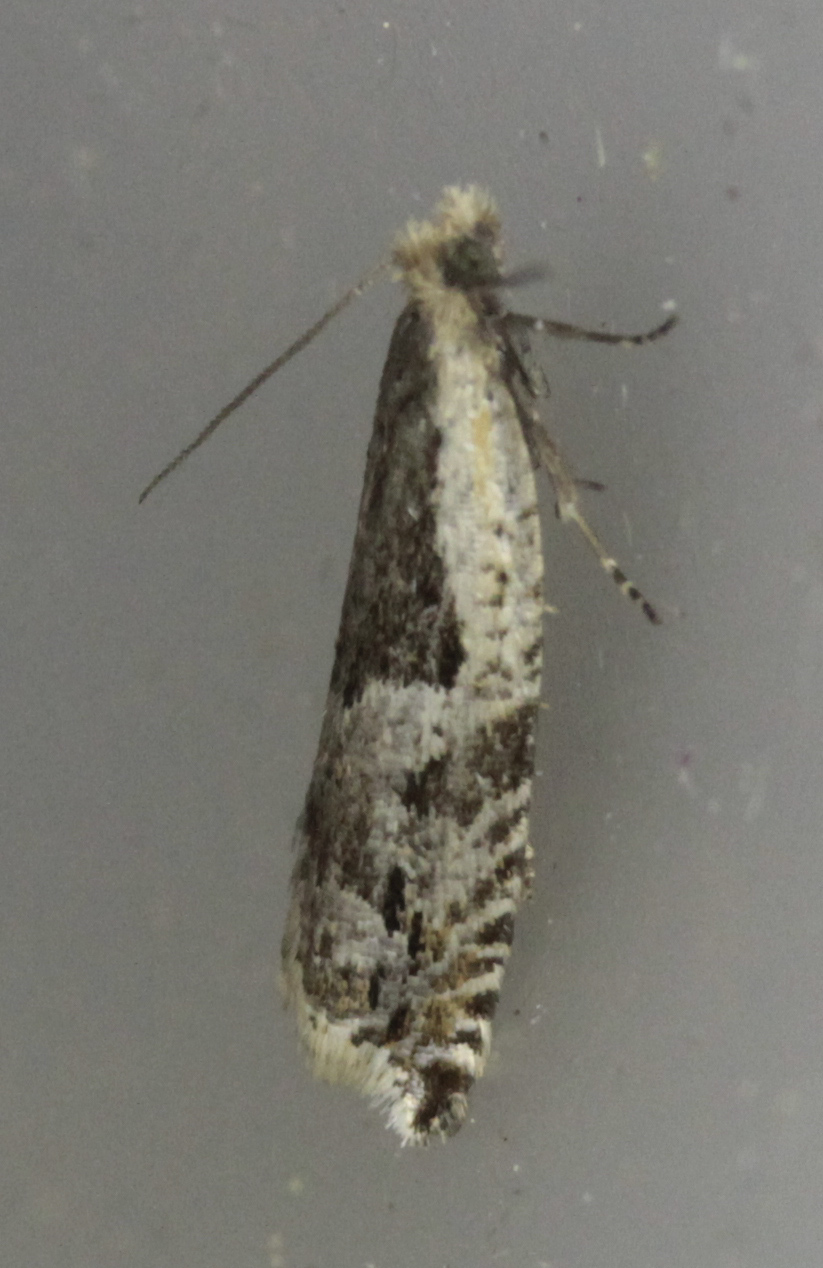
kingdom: Animalia
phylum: Arthropoda
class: Insecta
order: Lepidoptera
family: Tortricidae
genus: Ancylis
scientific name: Ancylis myrtillana
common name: Bilberry roller
